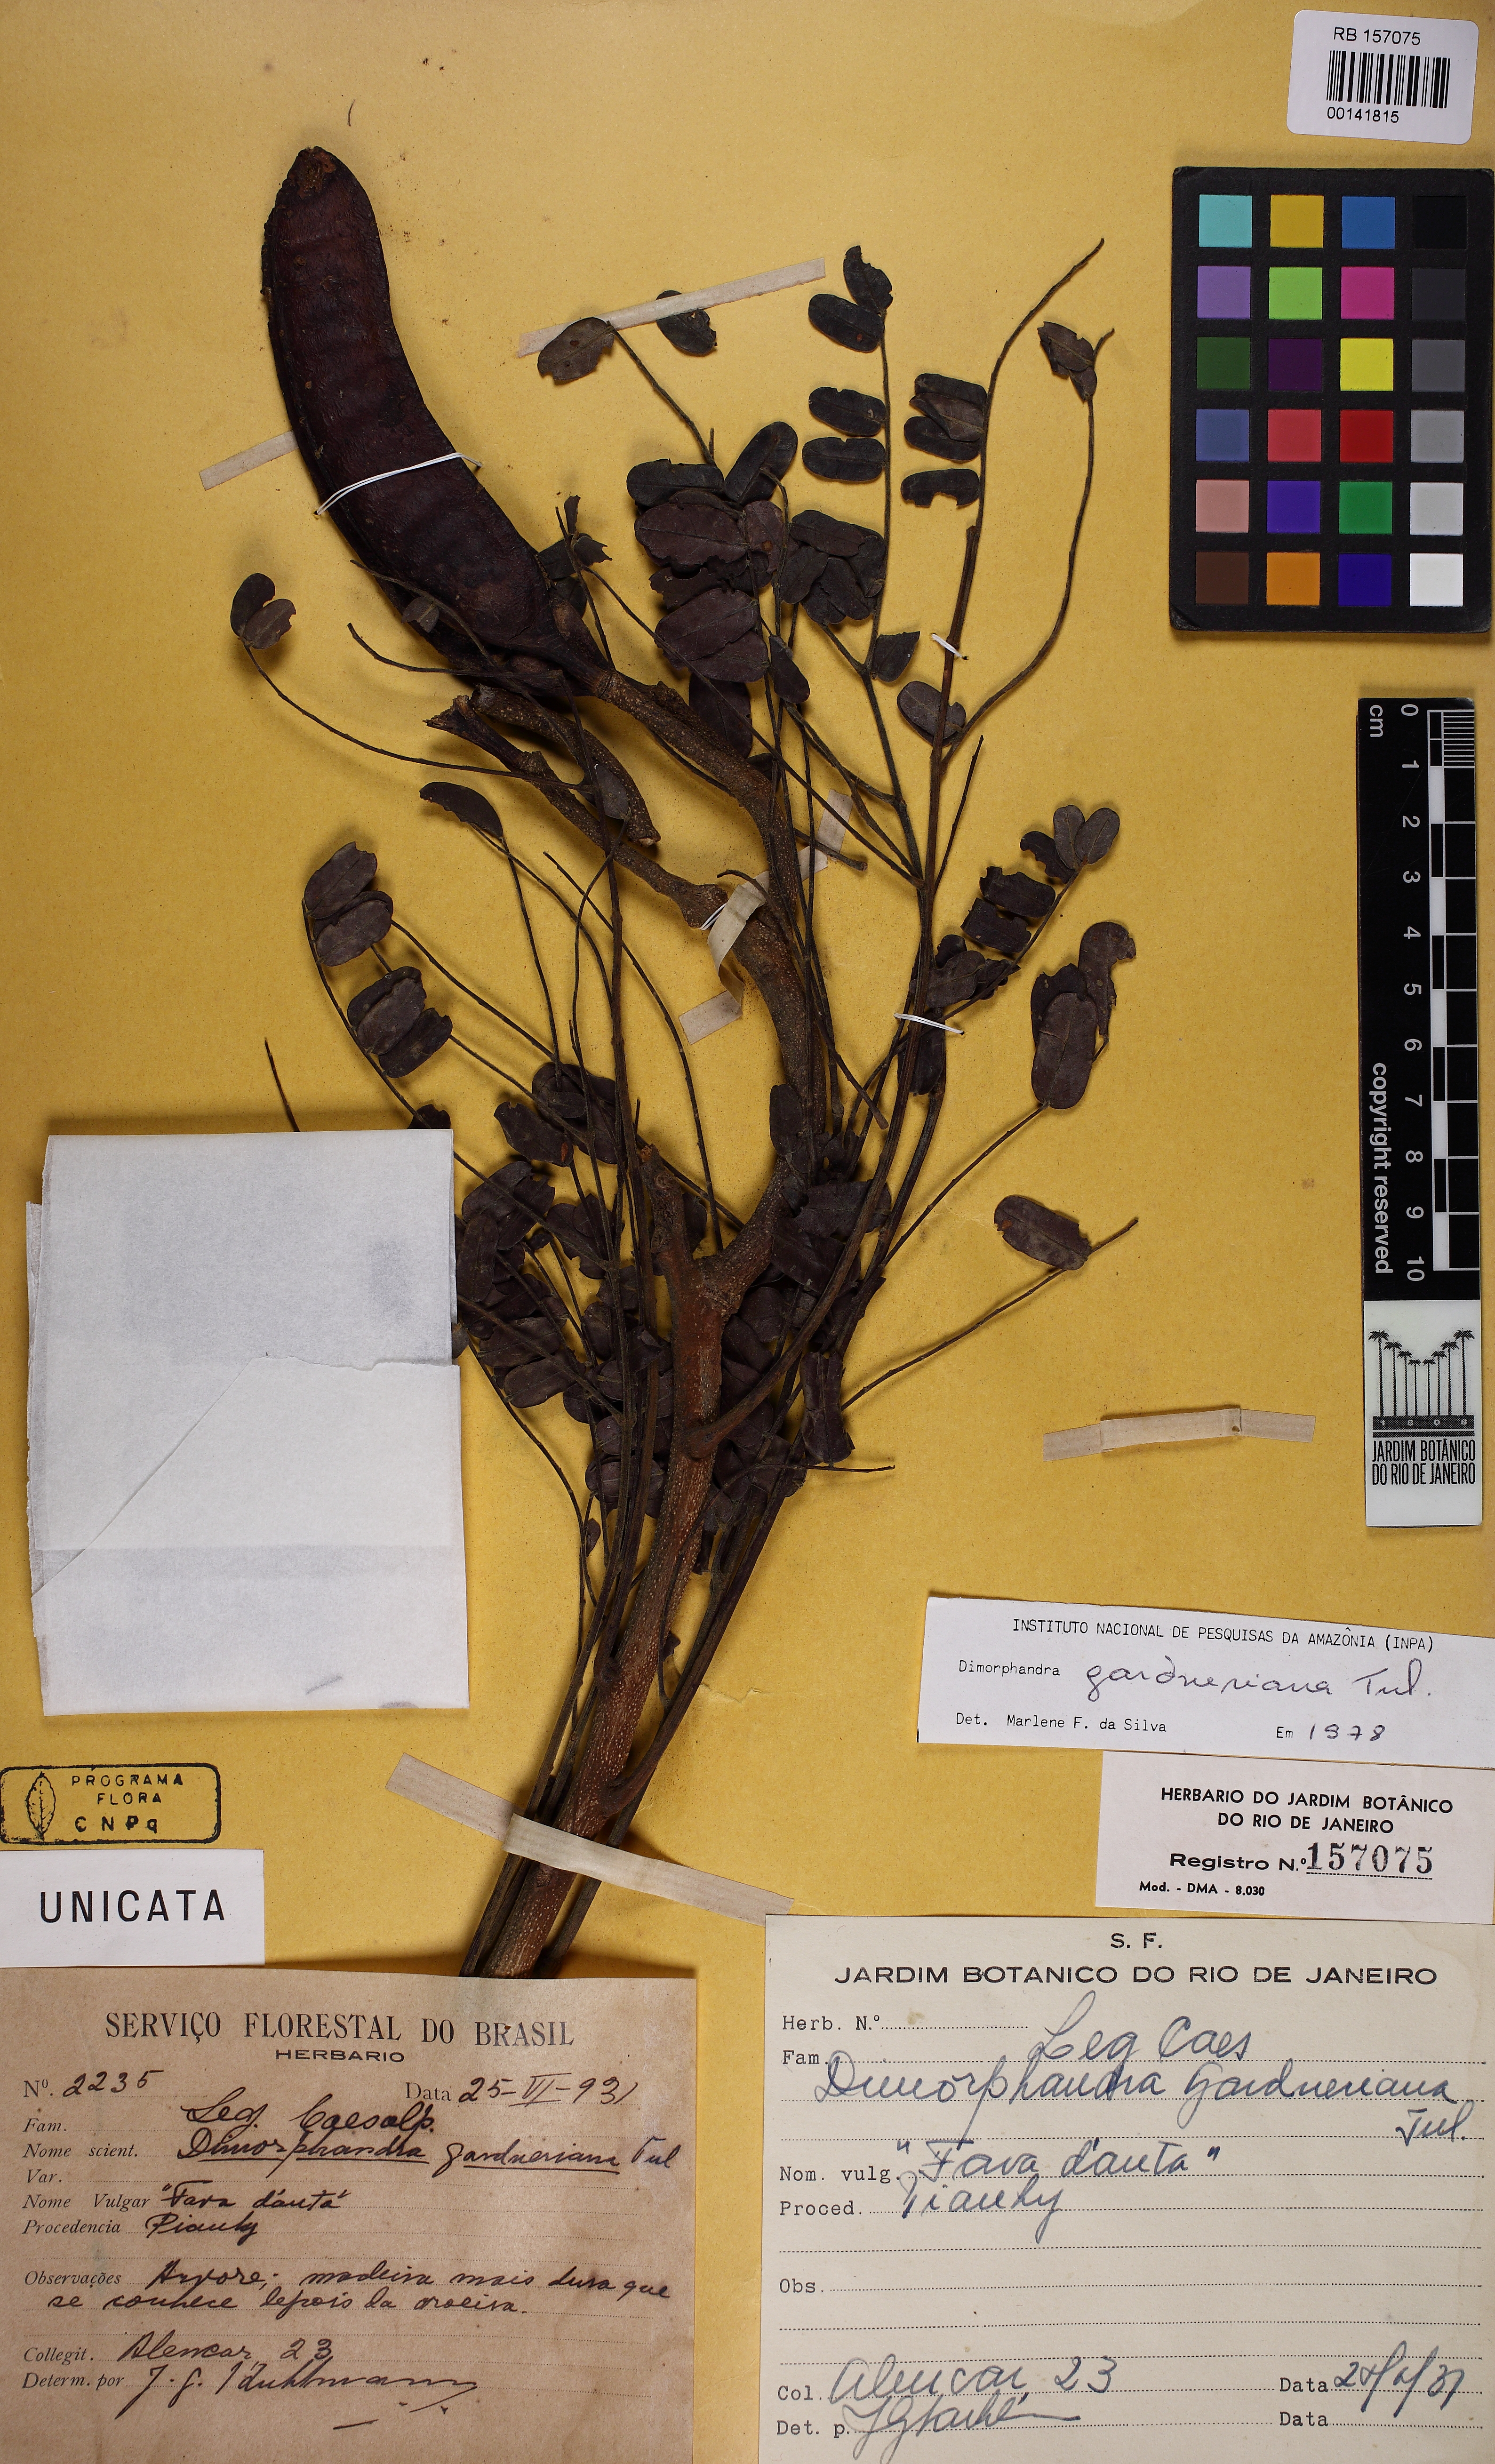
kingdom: Plantae
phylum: Tracheophyta
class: Magnoliopsida
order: Fabales
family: Fabaceae
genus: Dimorphandra
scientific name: Dimorphandra gardneriana
